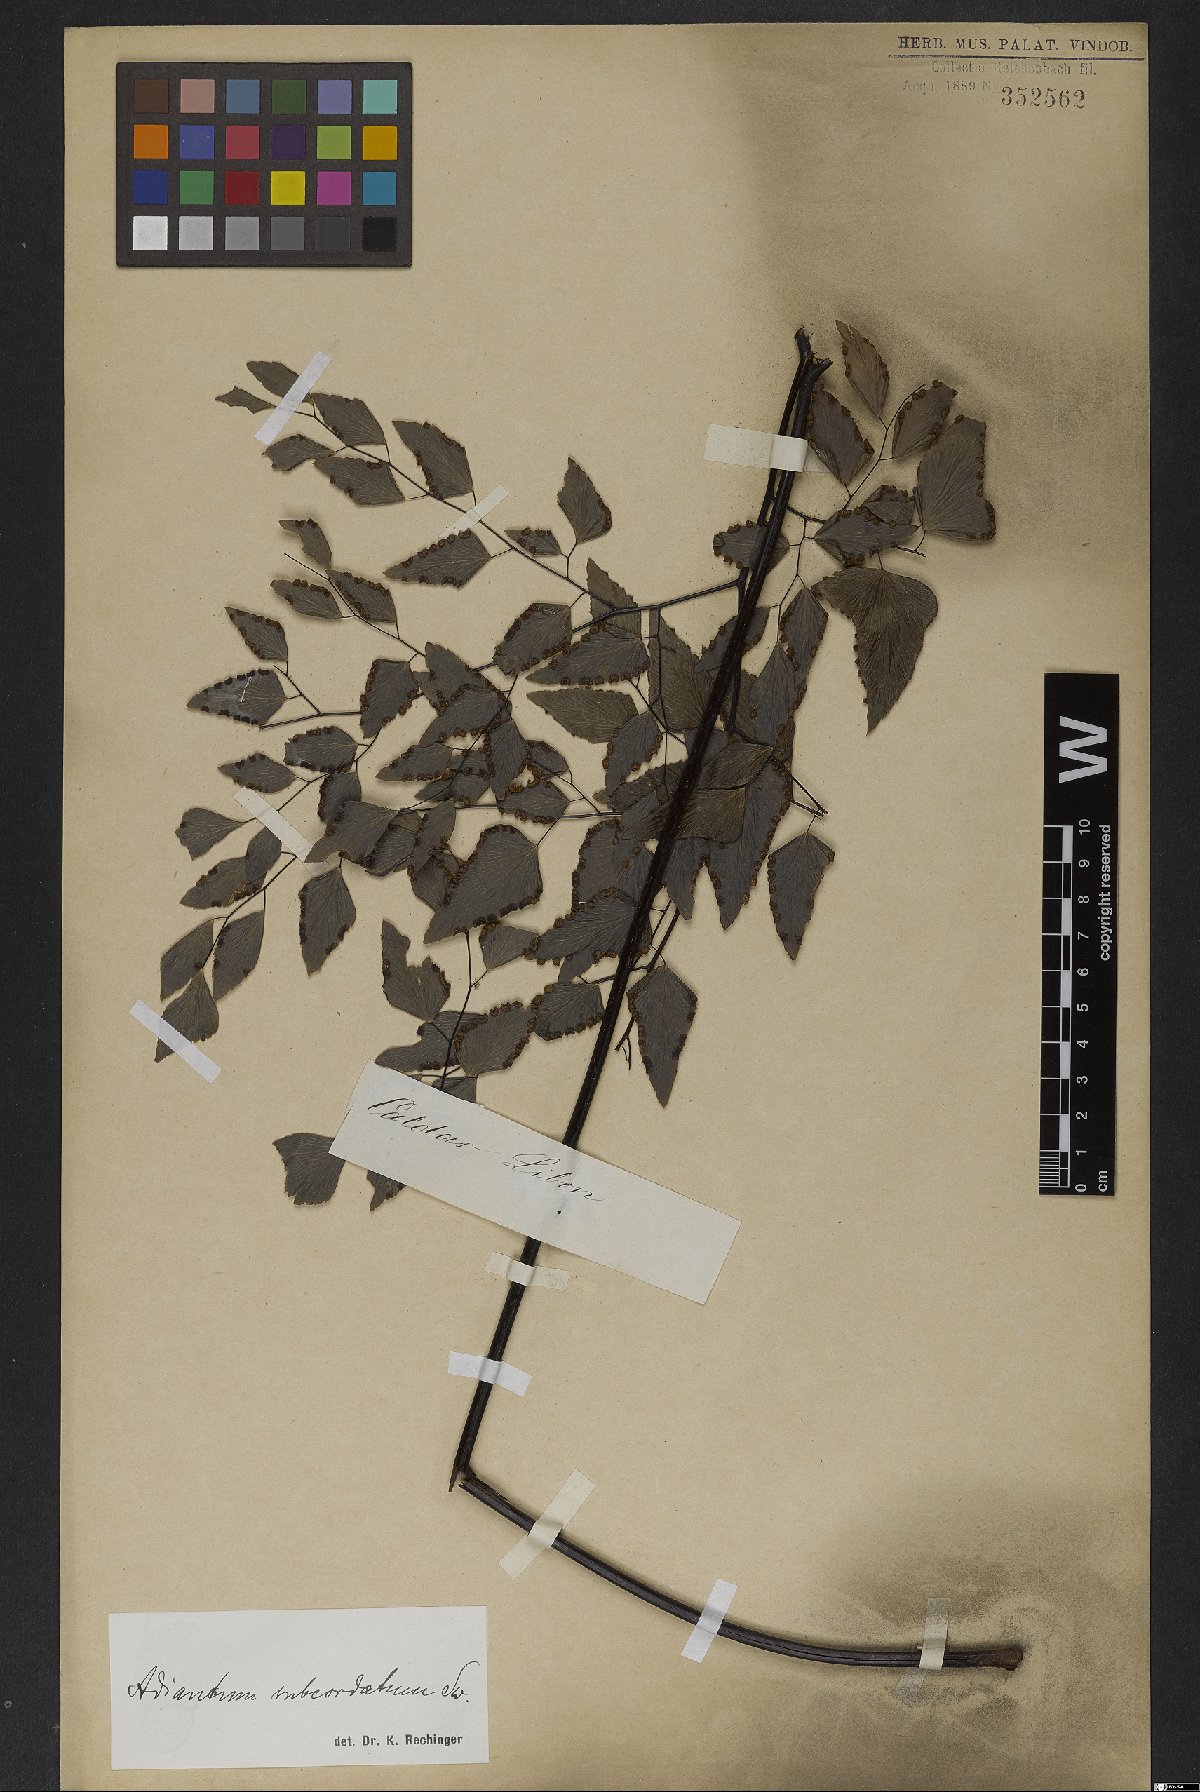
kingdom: Plantae
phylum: Tracheophyta
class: Polypodiopsida
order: Polypodiales
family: Pteridaceae
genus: Adiantum
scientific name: Adiantum subcordatum
